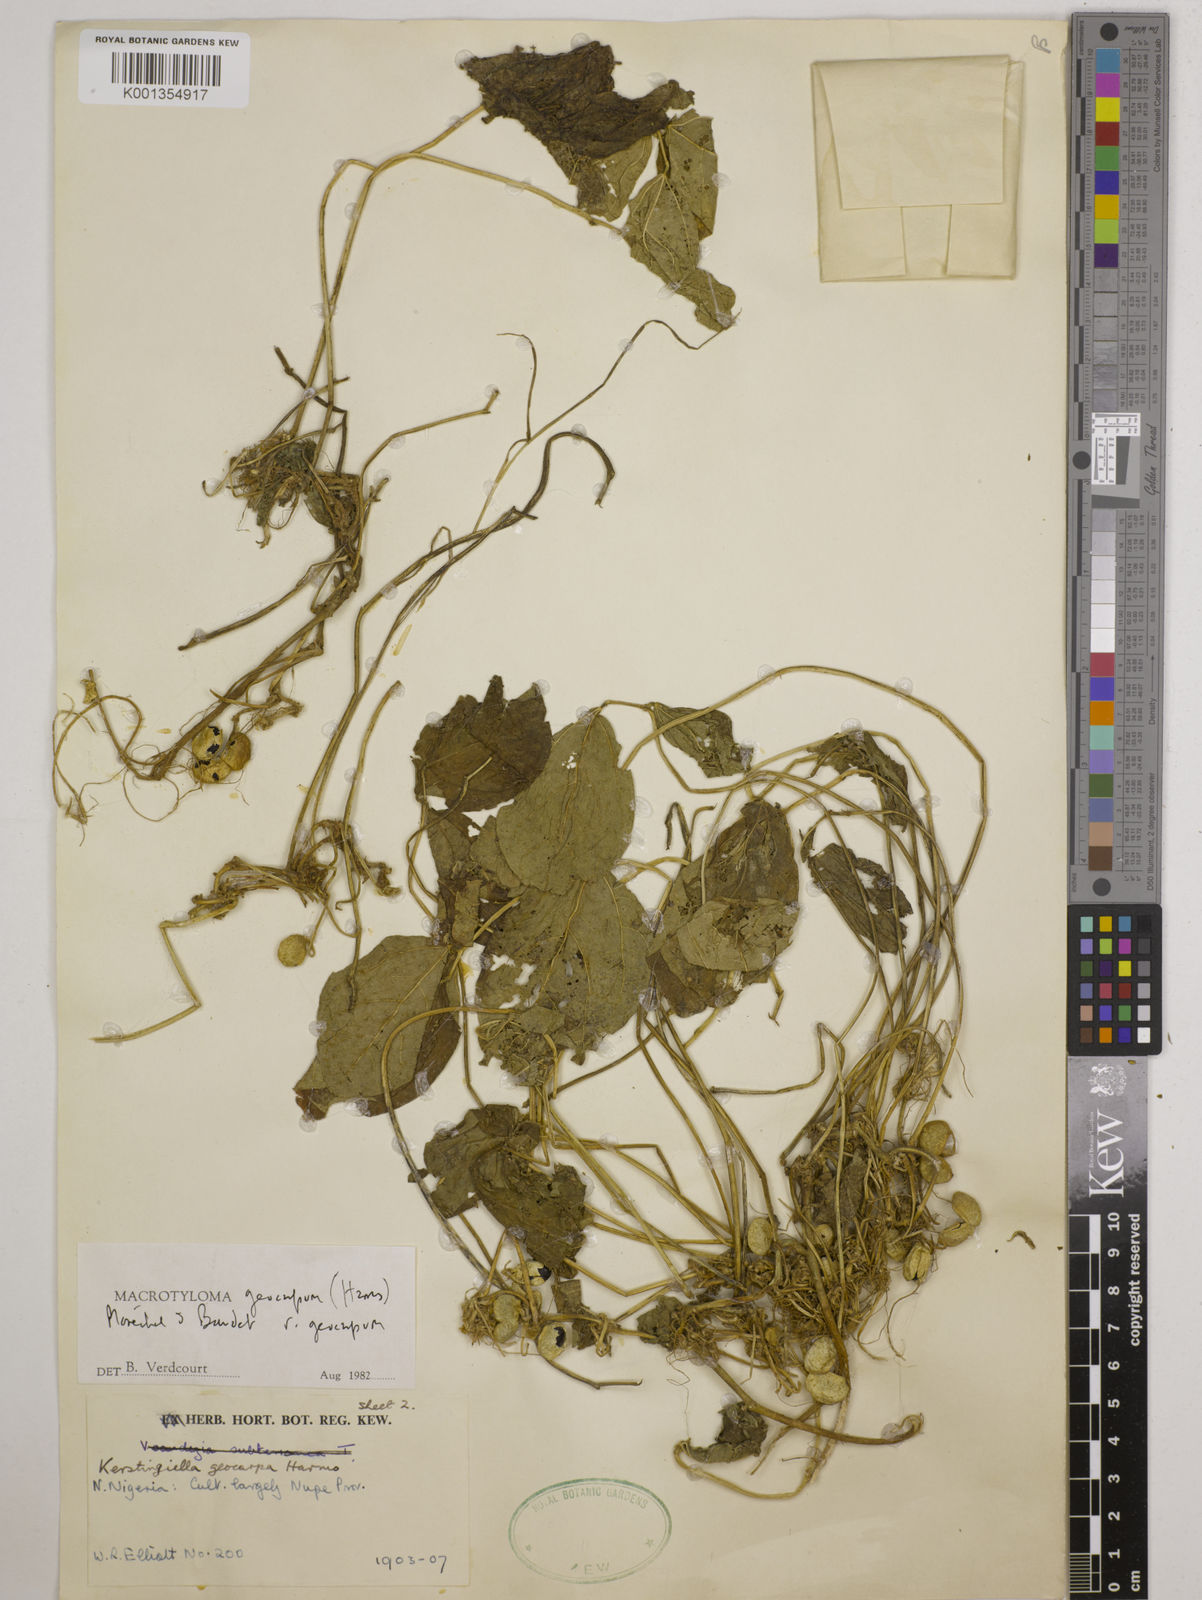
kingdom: Plantae
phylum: Tracheophyta
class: Magnoliopsida
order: Fabales
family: Fabaceae
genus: Macrotyloma
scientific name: Macrotyloma geocarpum
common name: Ground-bean
